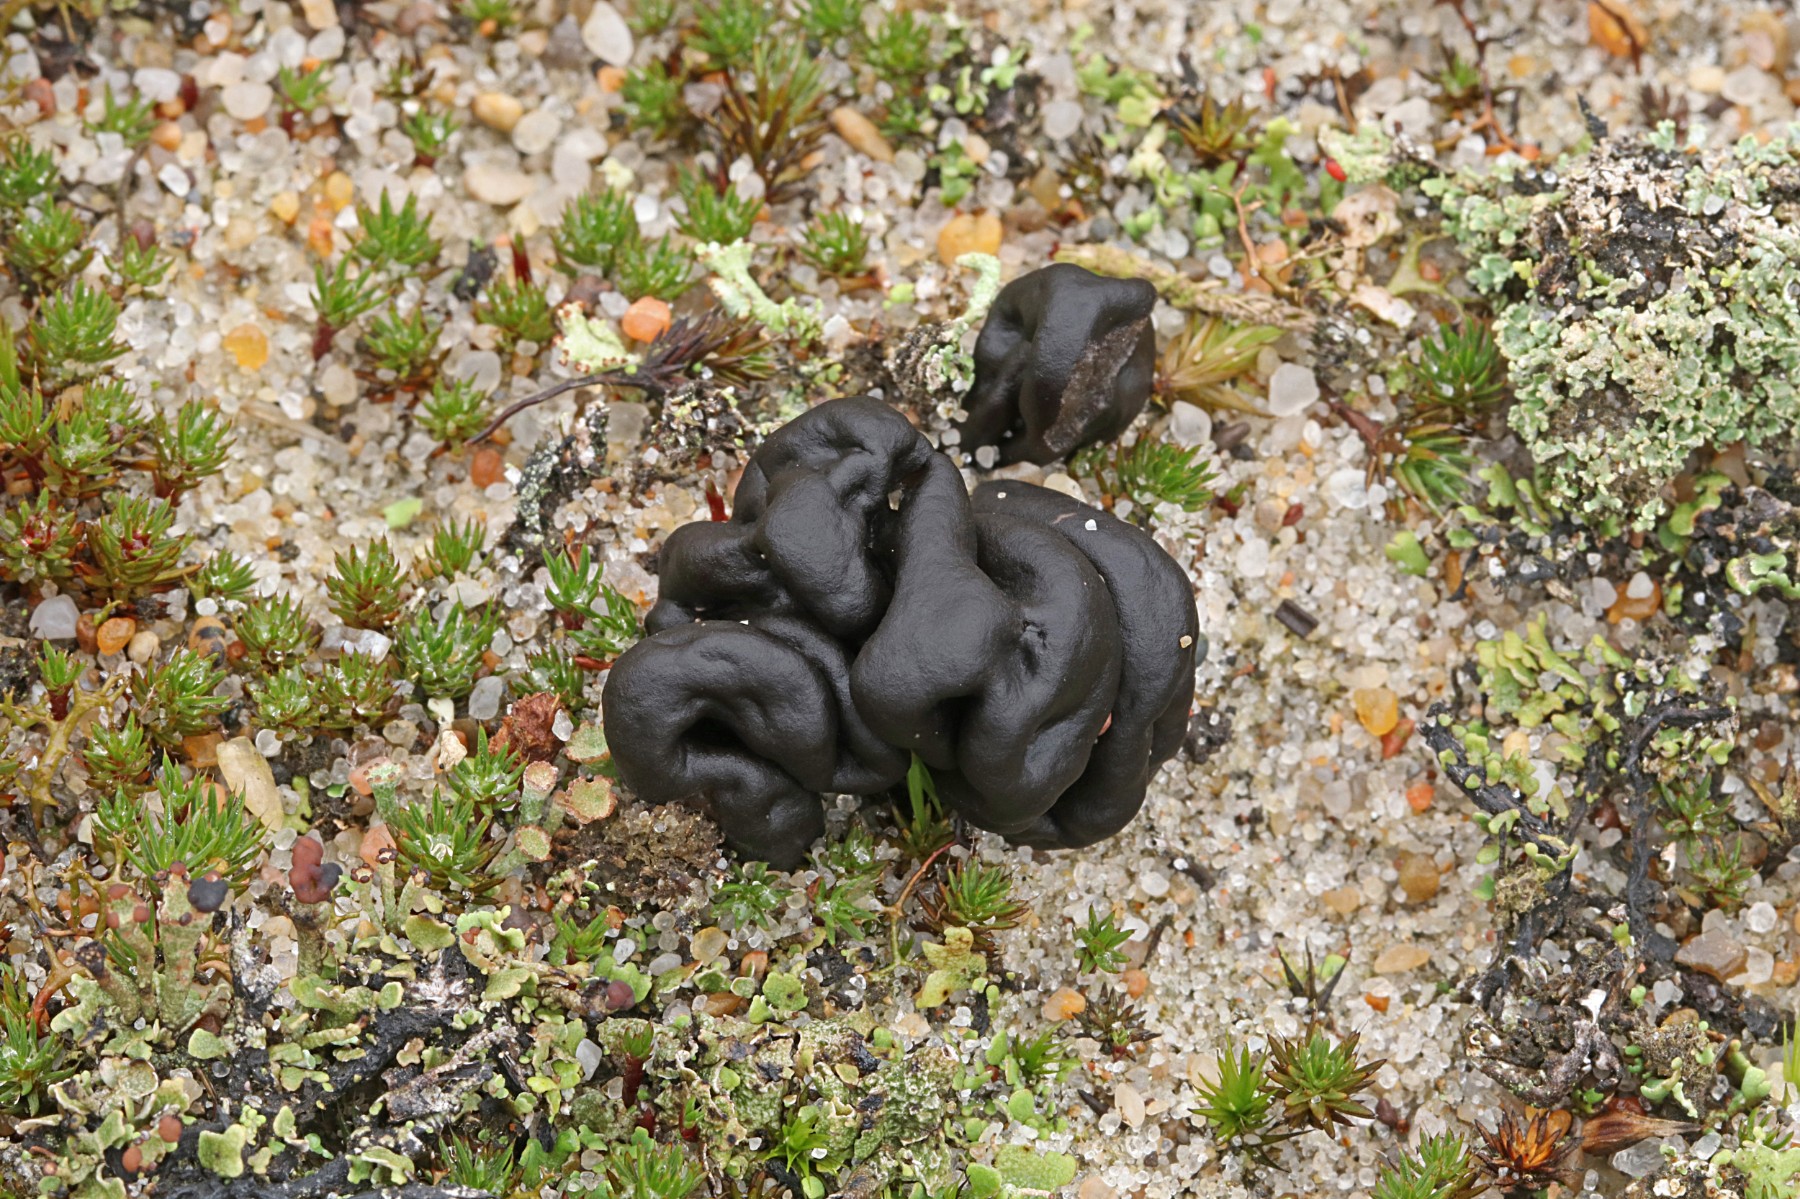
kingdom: Fungi
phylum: Ascomycota
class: Geoglossomycetes
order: Geoglossales
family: Geoglossaceae
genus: Sabuloglossum
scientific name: Sabuloglossum arenarium
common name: klit-jordtunge
